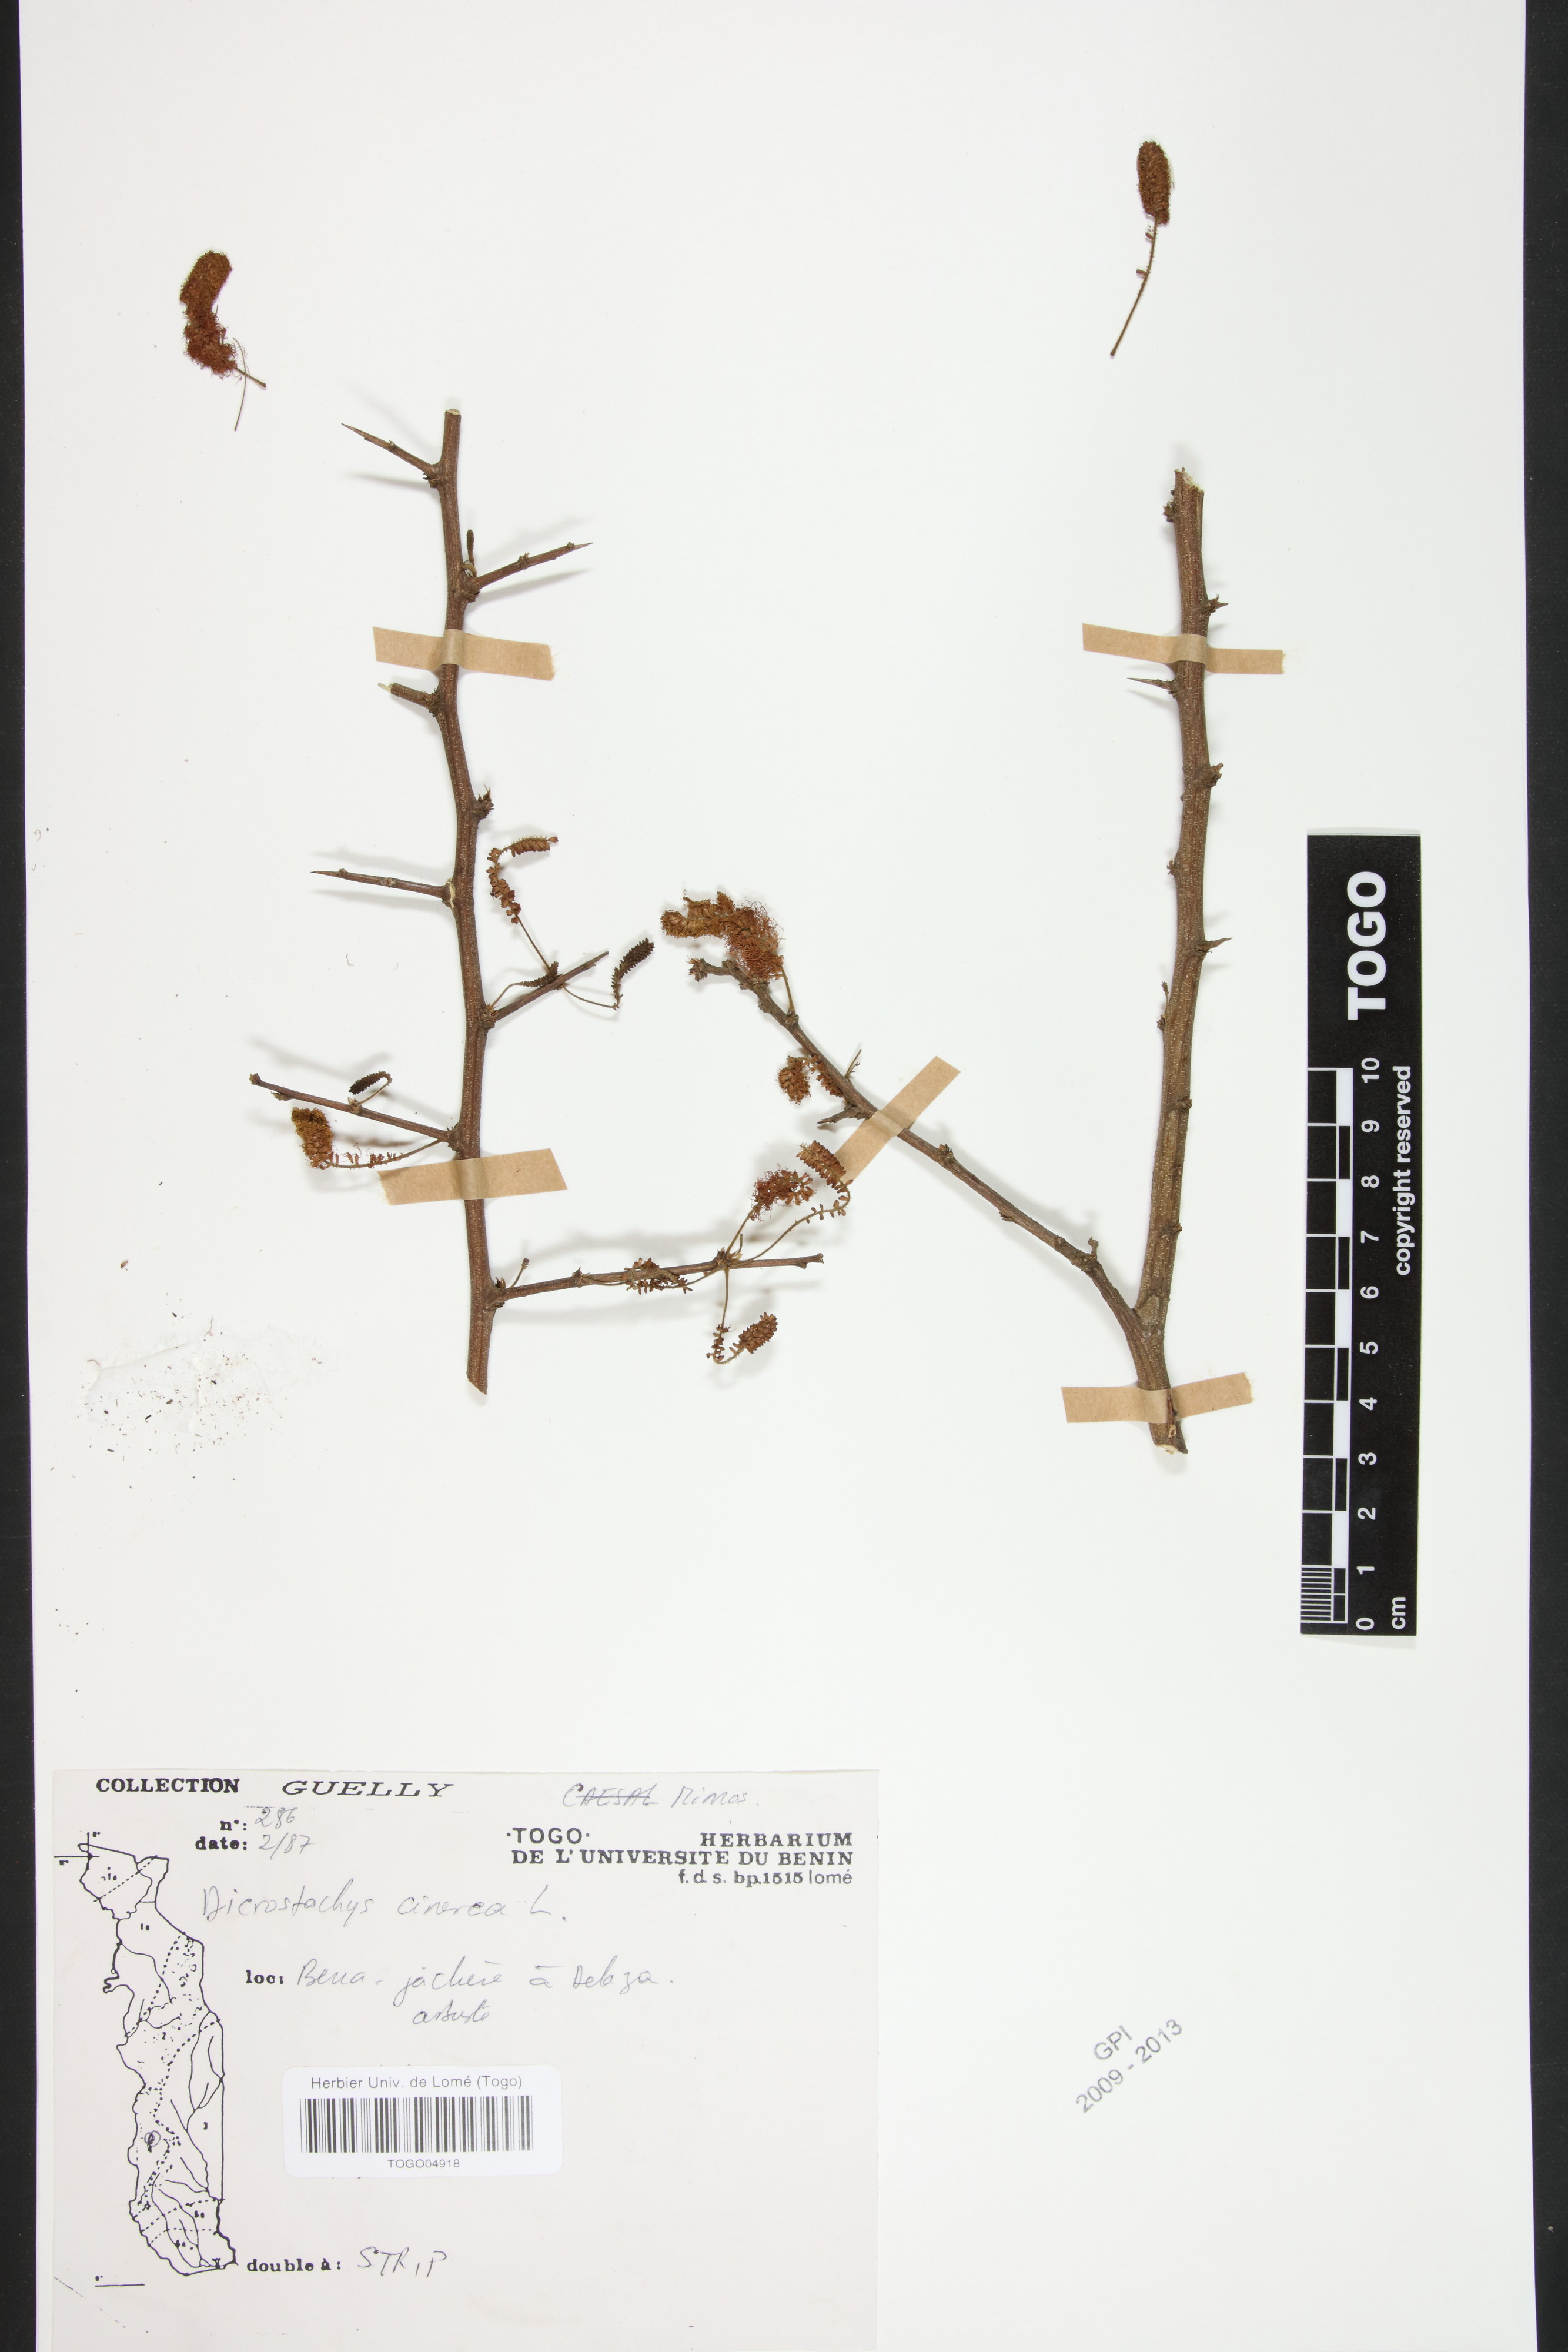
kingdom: Plantae
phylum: Tracheophyta
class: Magnoliopsida
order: Fabales
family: Fabaceae
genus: Dichrostachys
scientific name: Dichrostachys cinerea
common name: Sicklebush
